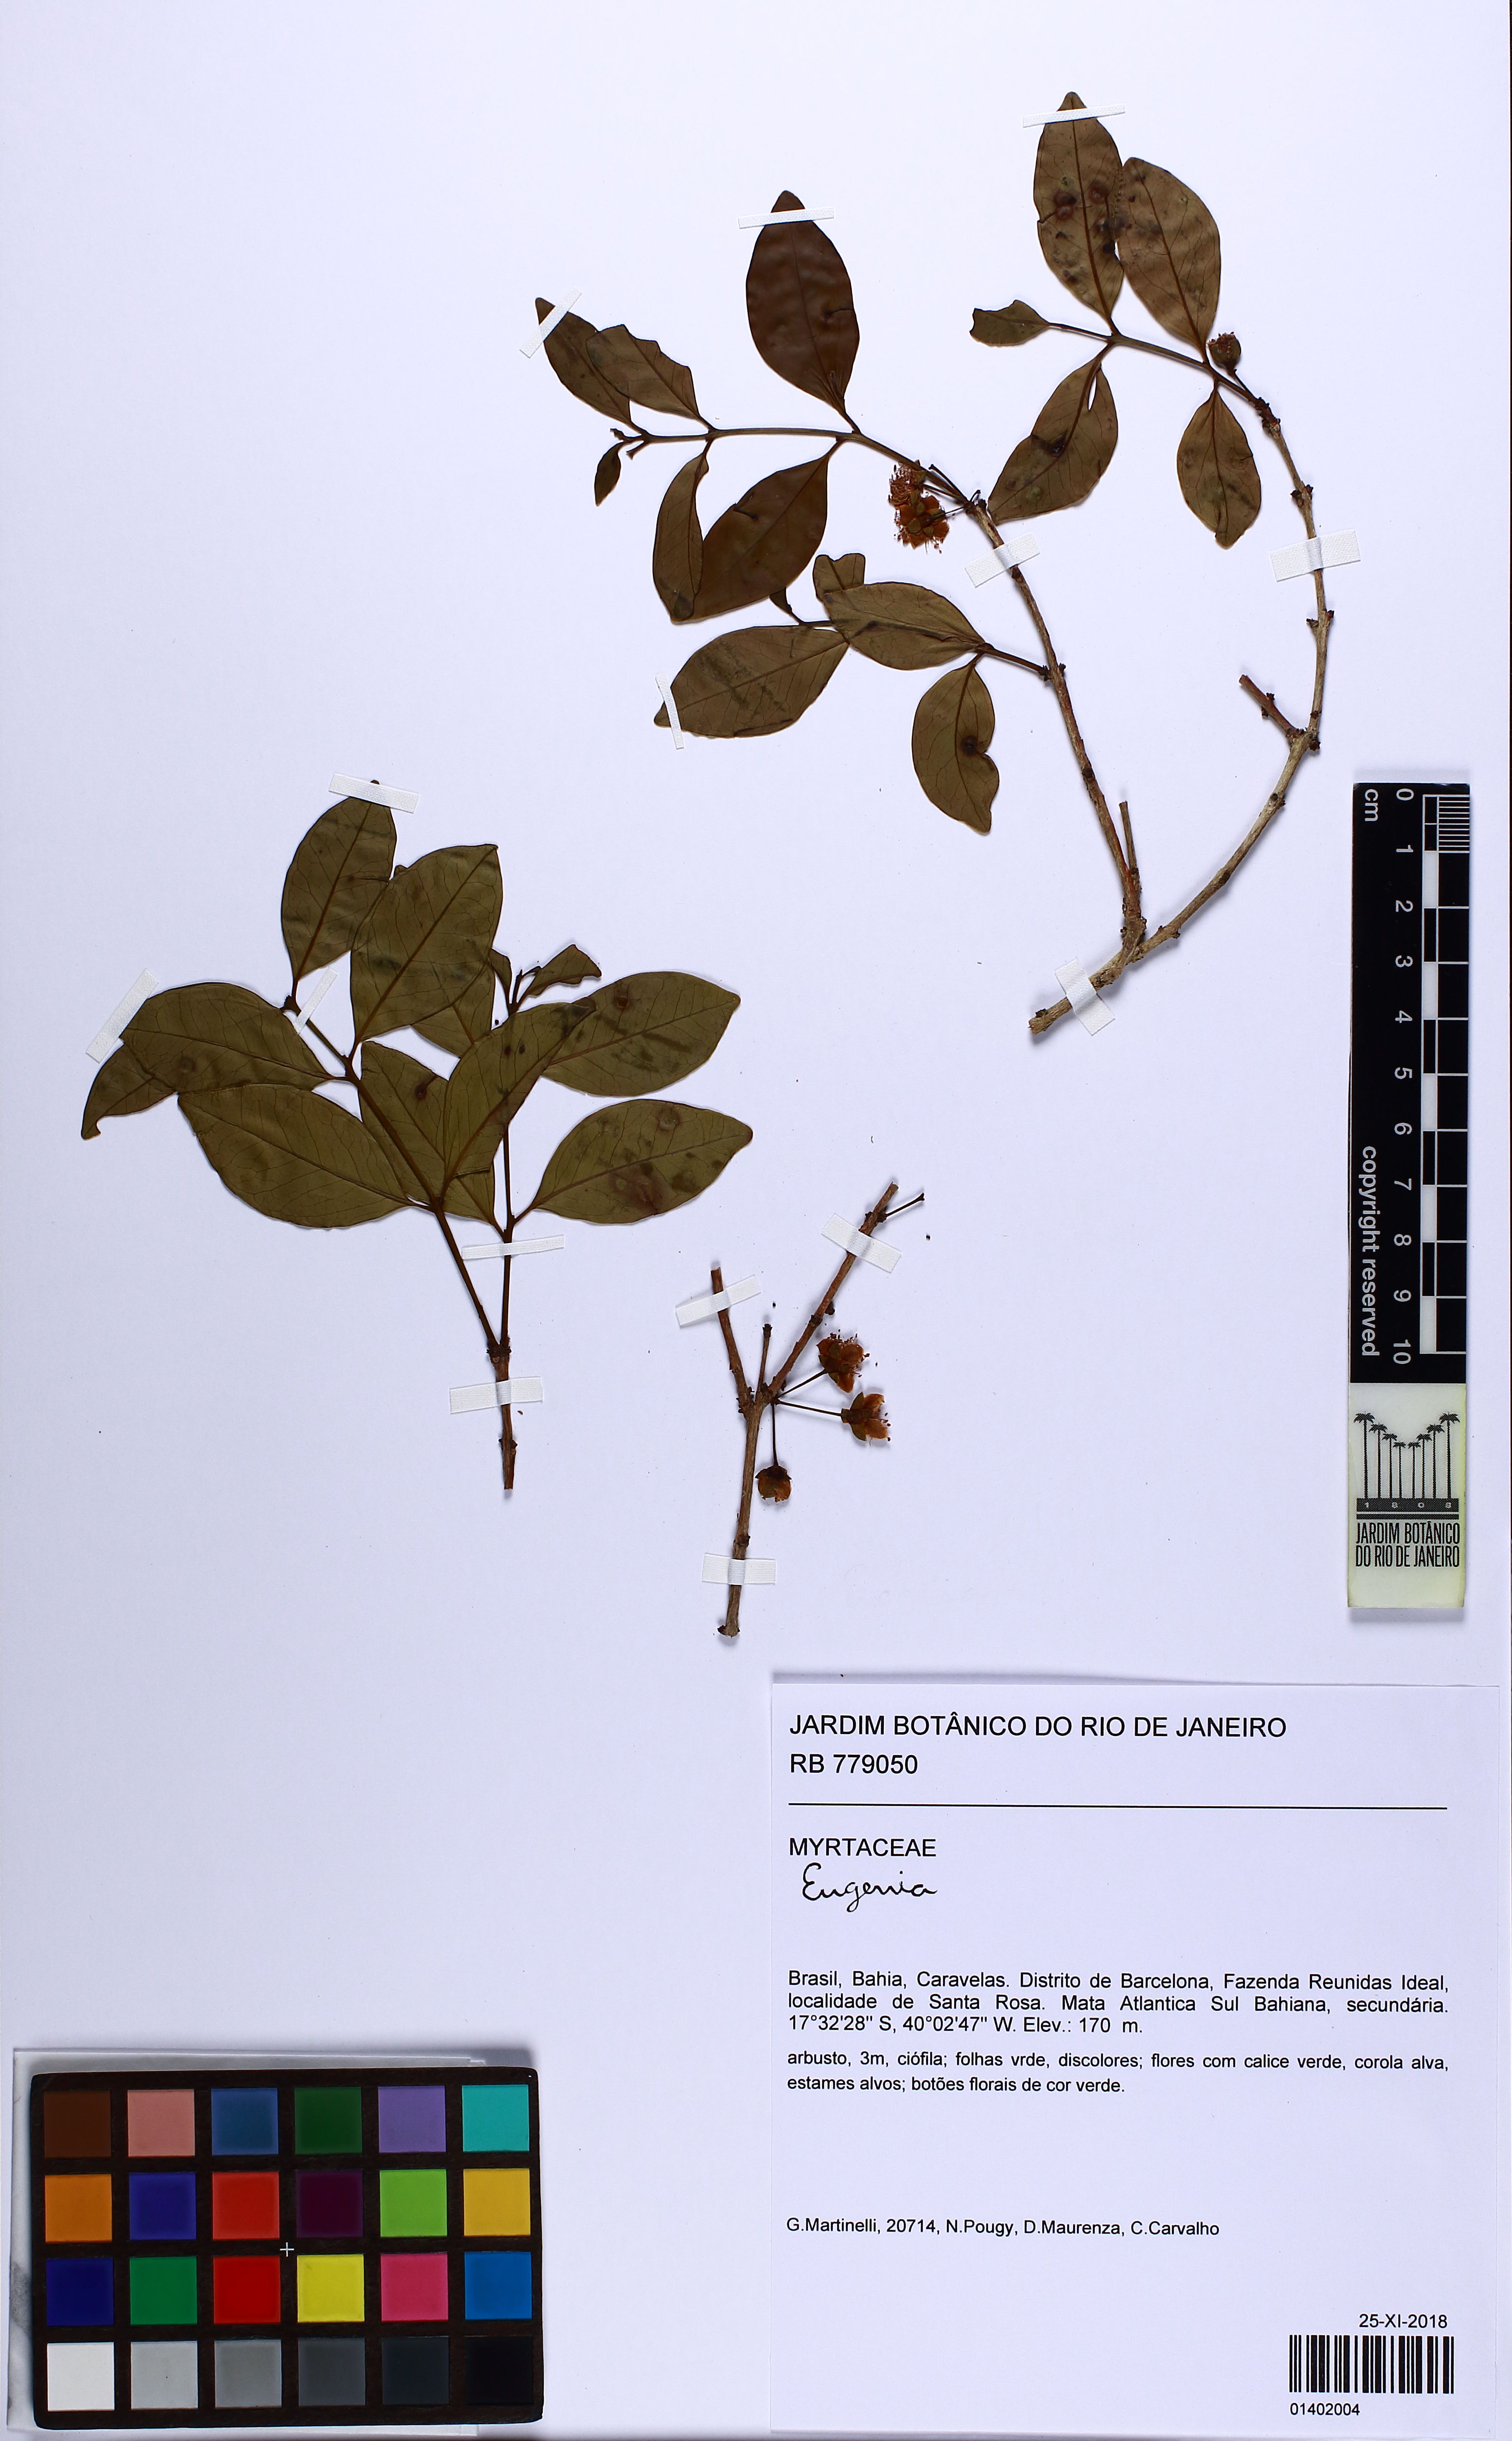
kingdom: Plantae
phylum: Tracheophyta
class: Magnoliopsida
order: Myrtales
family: Myrtaceae
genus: Eugenia
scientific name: Eugenia
